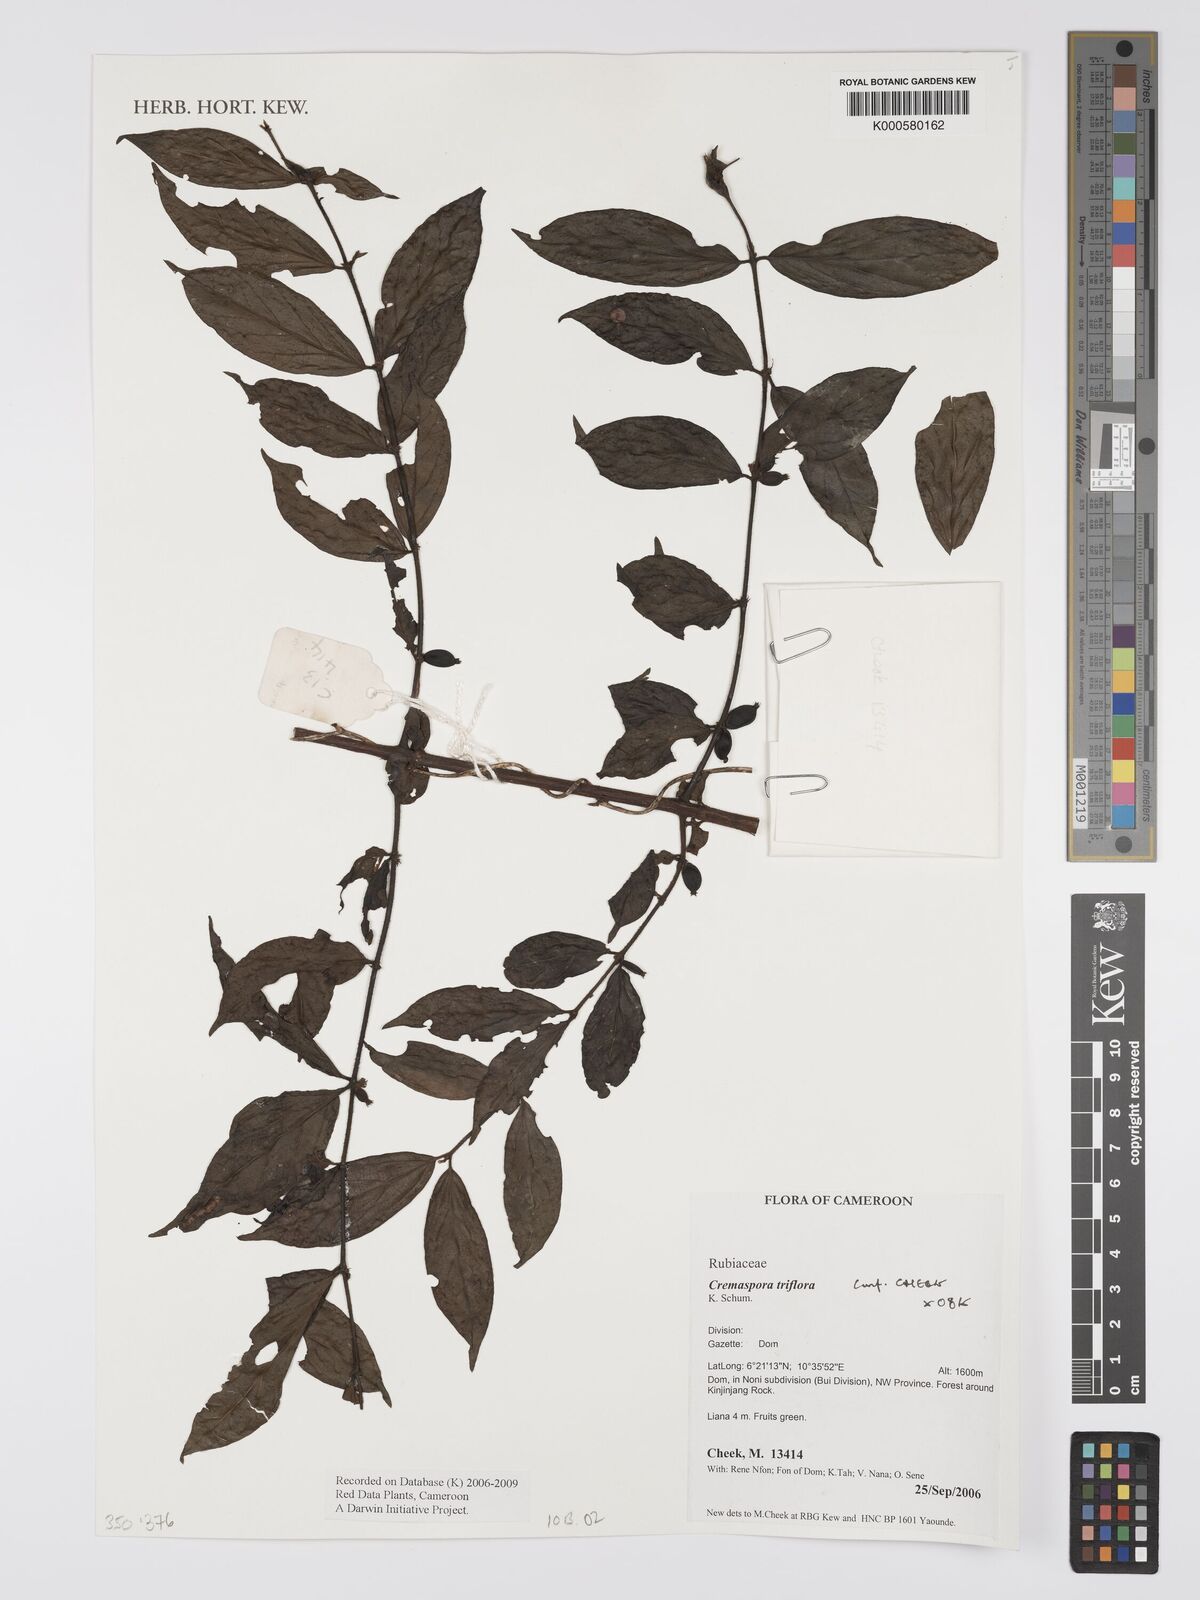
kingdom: Plantae
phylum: Tracheophyta
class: Magnoliopsida
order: Gentianales
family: Rubiaceae
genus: Cremaspora
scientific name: Cremaspora triflora
